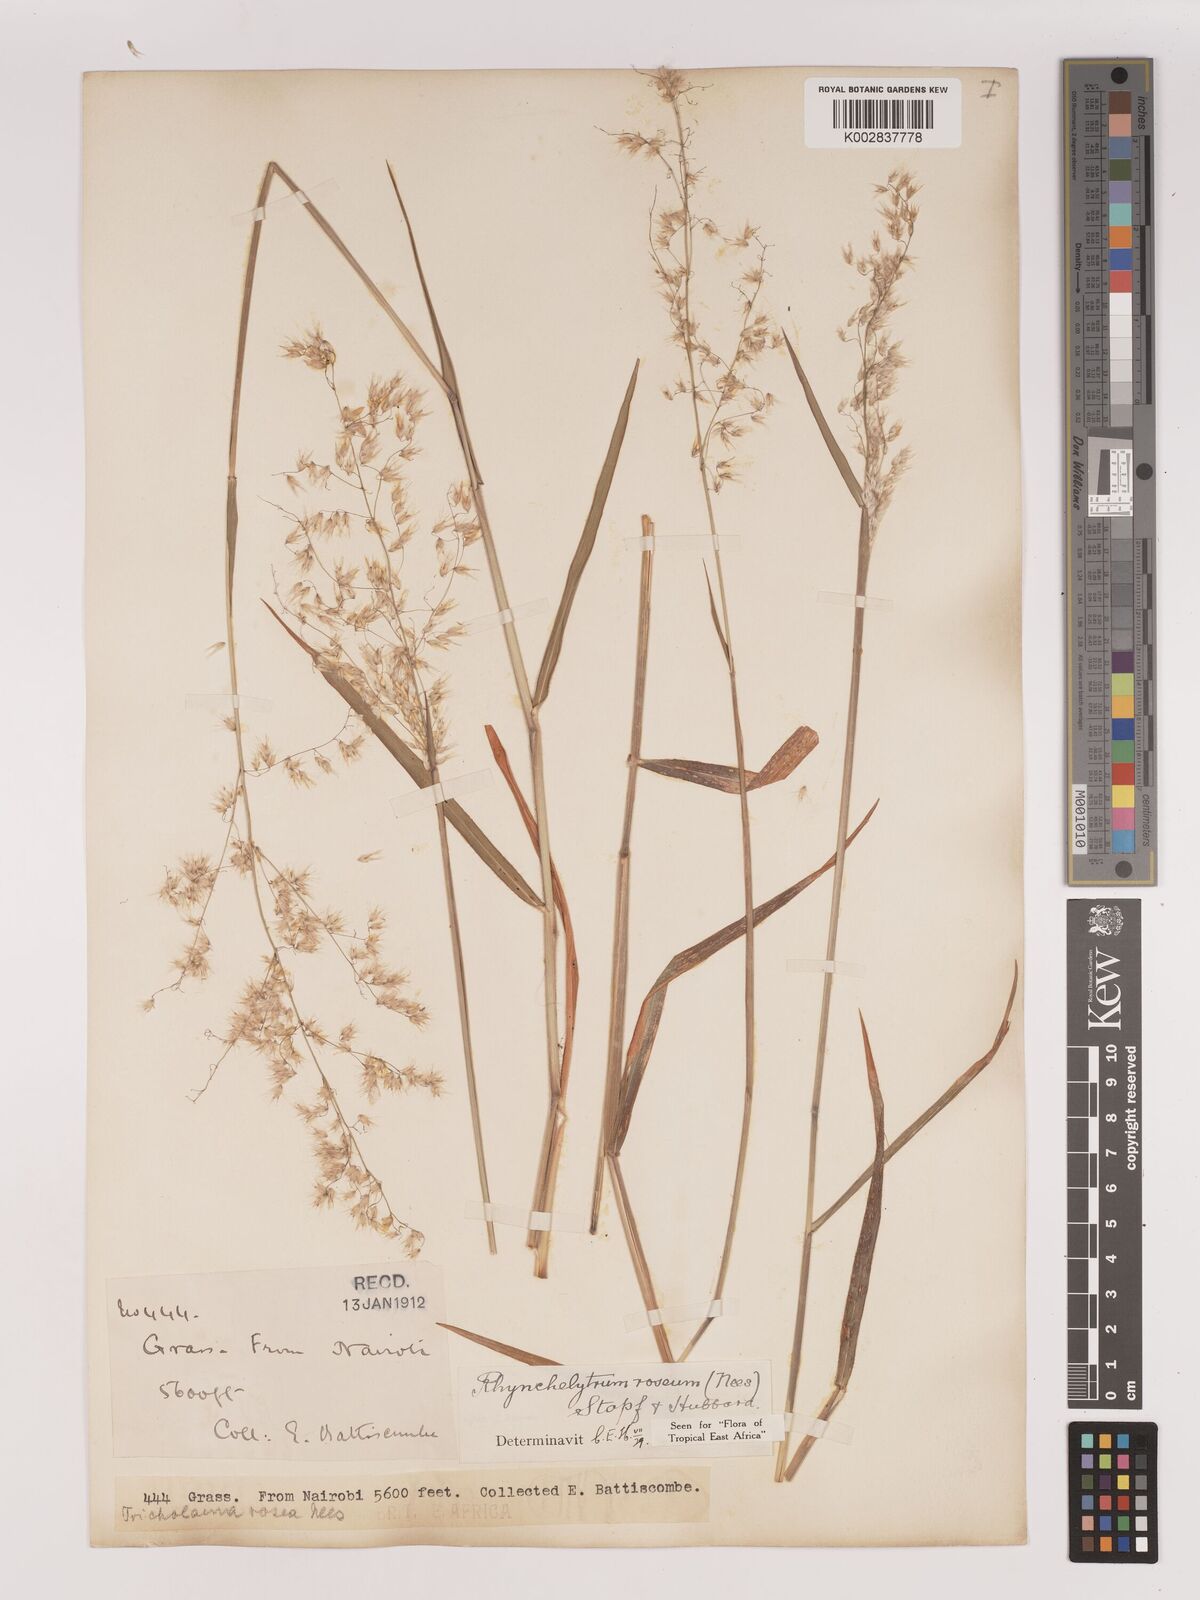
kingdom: Plantae
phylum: Tracheophyta
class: Liliopsida
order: Poales
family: Poaceae
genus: Melinis
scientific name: Melinis repens
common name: Rose natal grass
